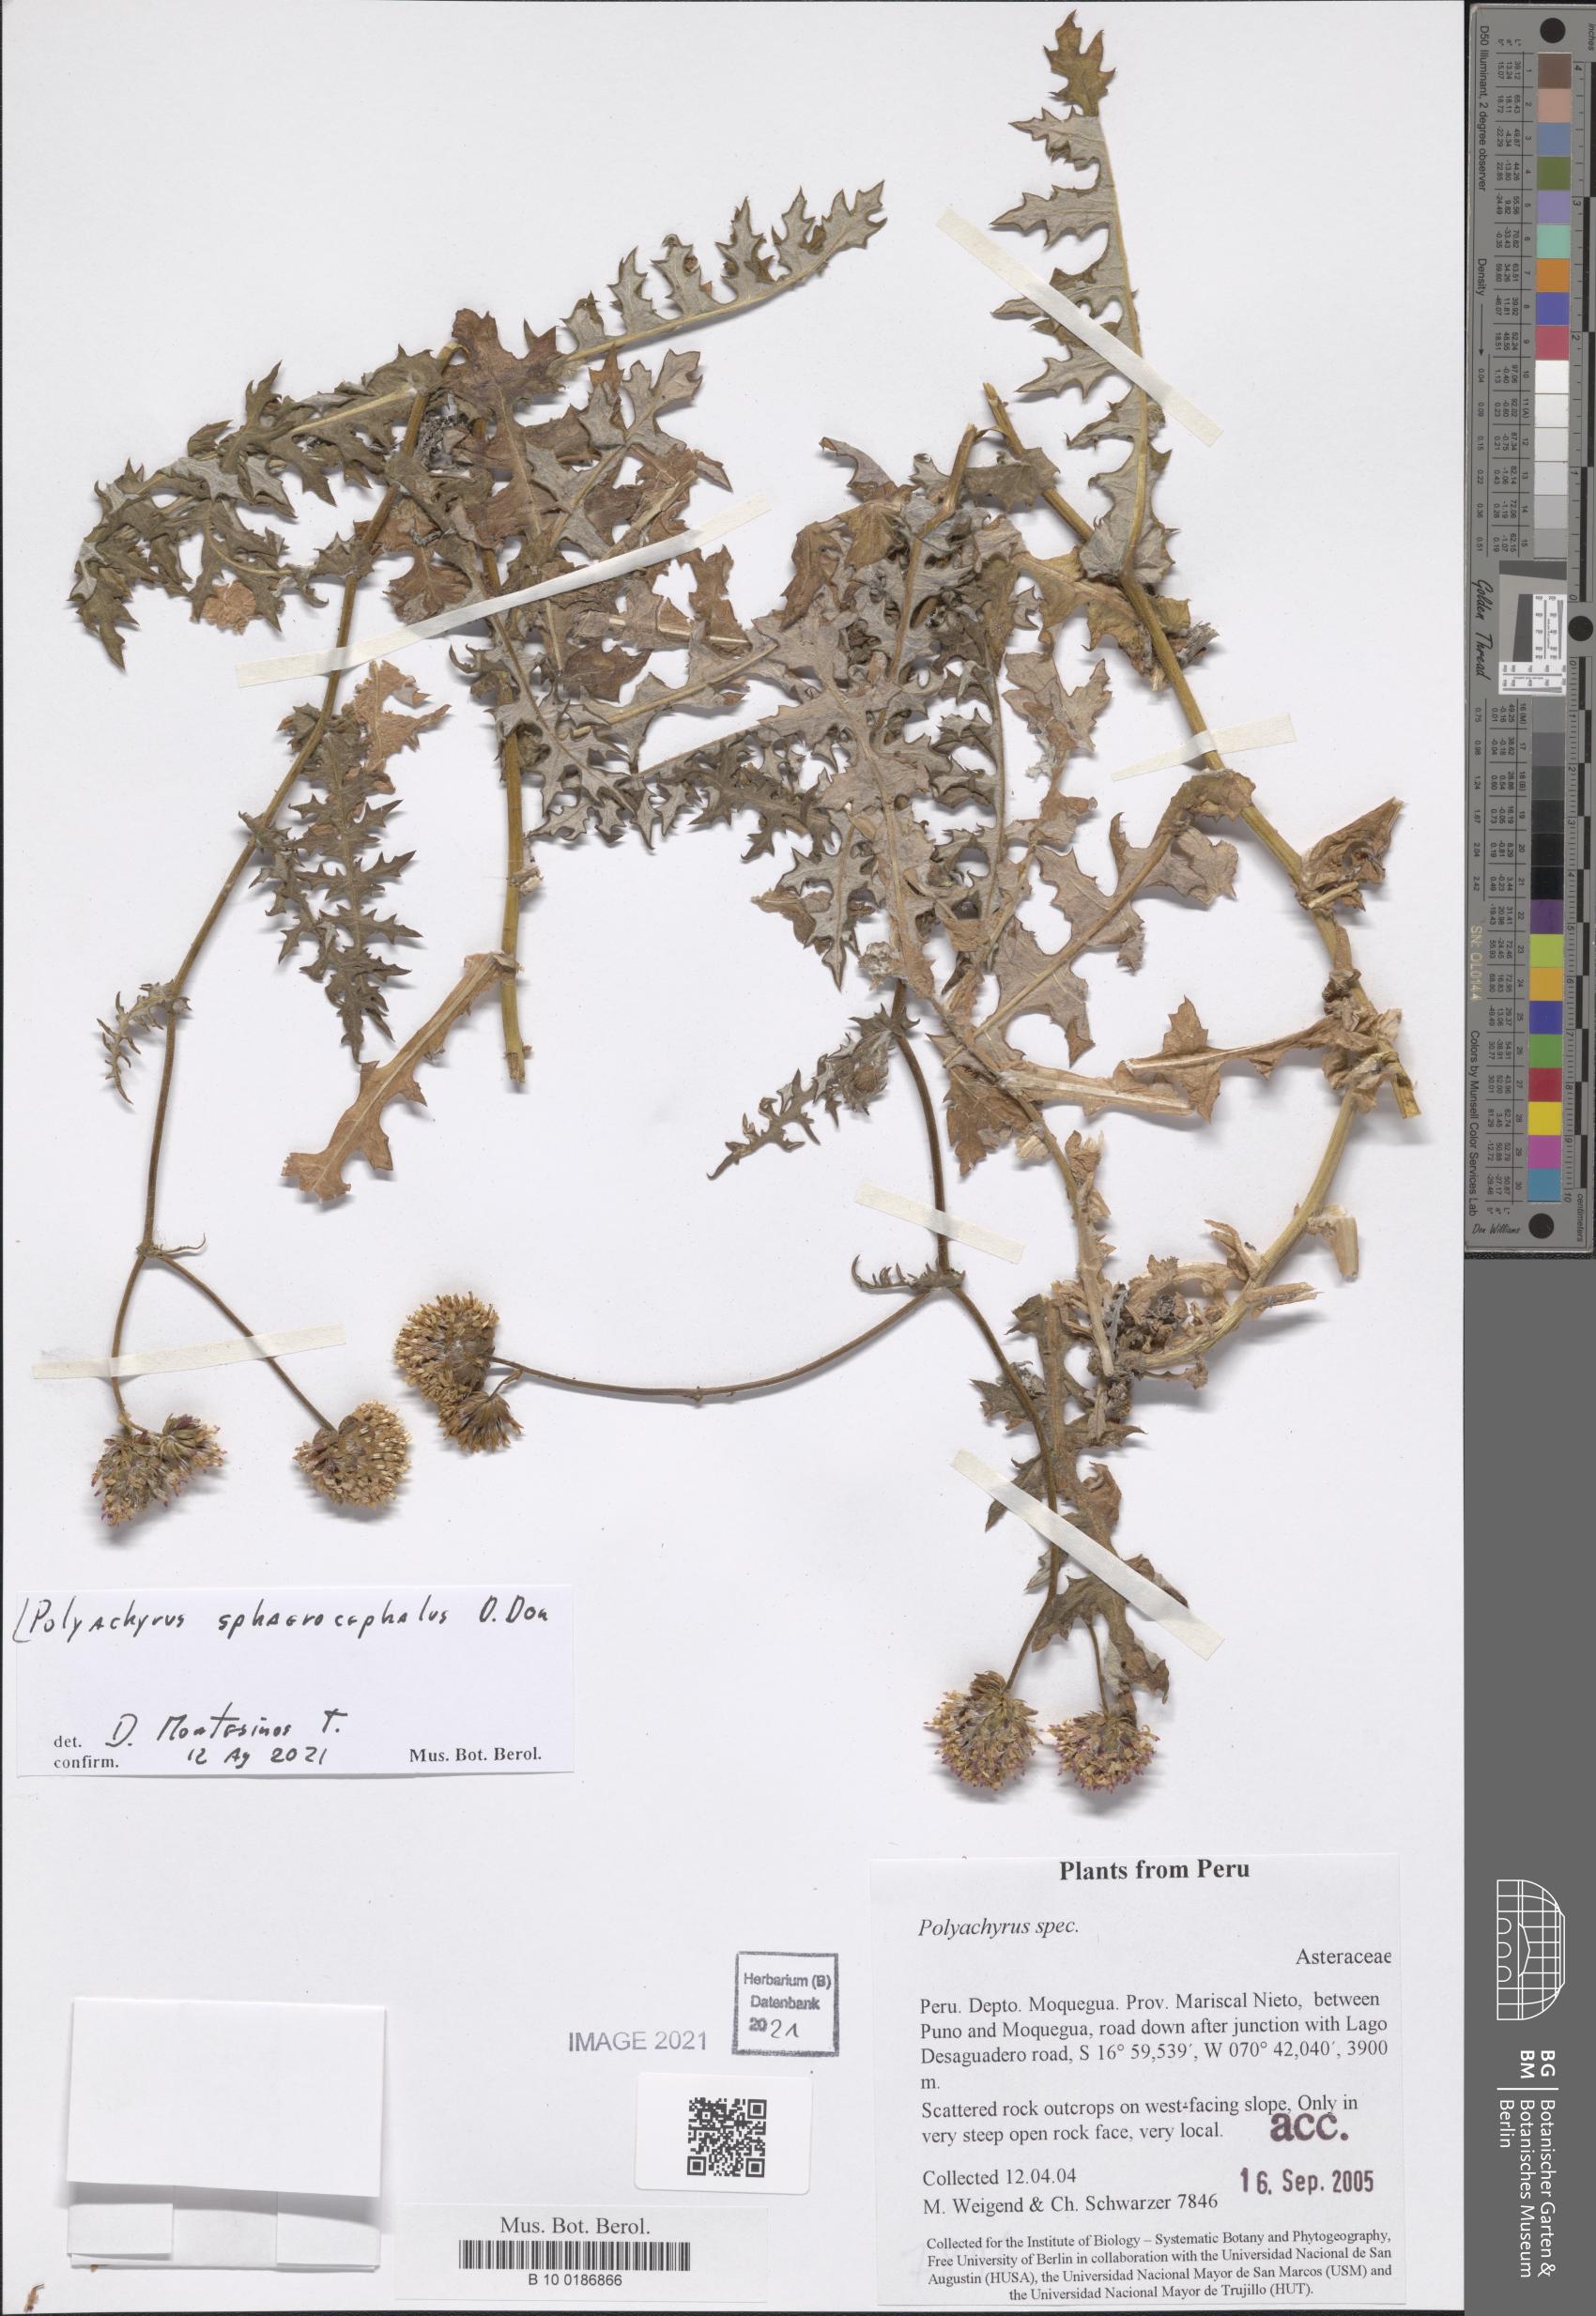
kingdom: Plantae
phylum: Tracheophyta
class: Magnoliopsida
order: Asterales
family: Asteraceae
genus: Polyachyrus
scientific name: Polyachyrus sphaerocephalus
